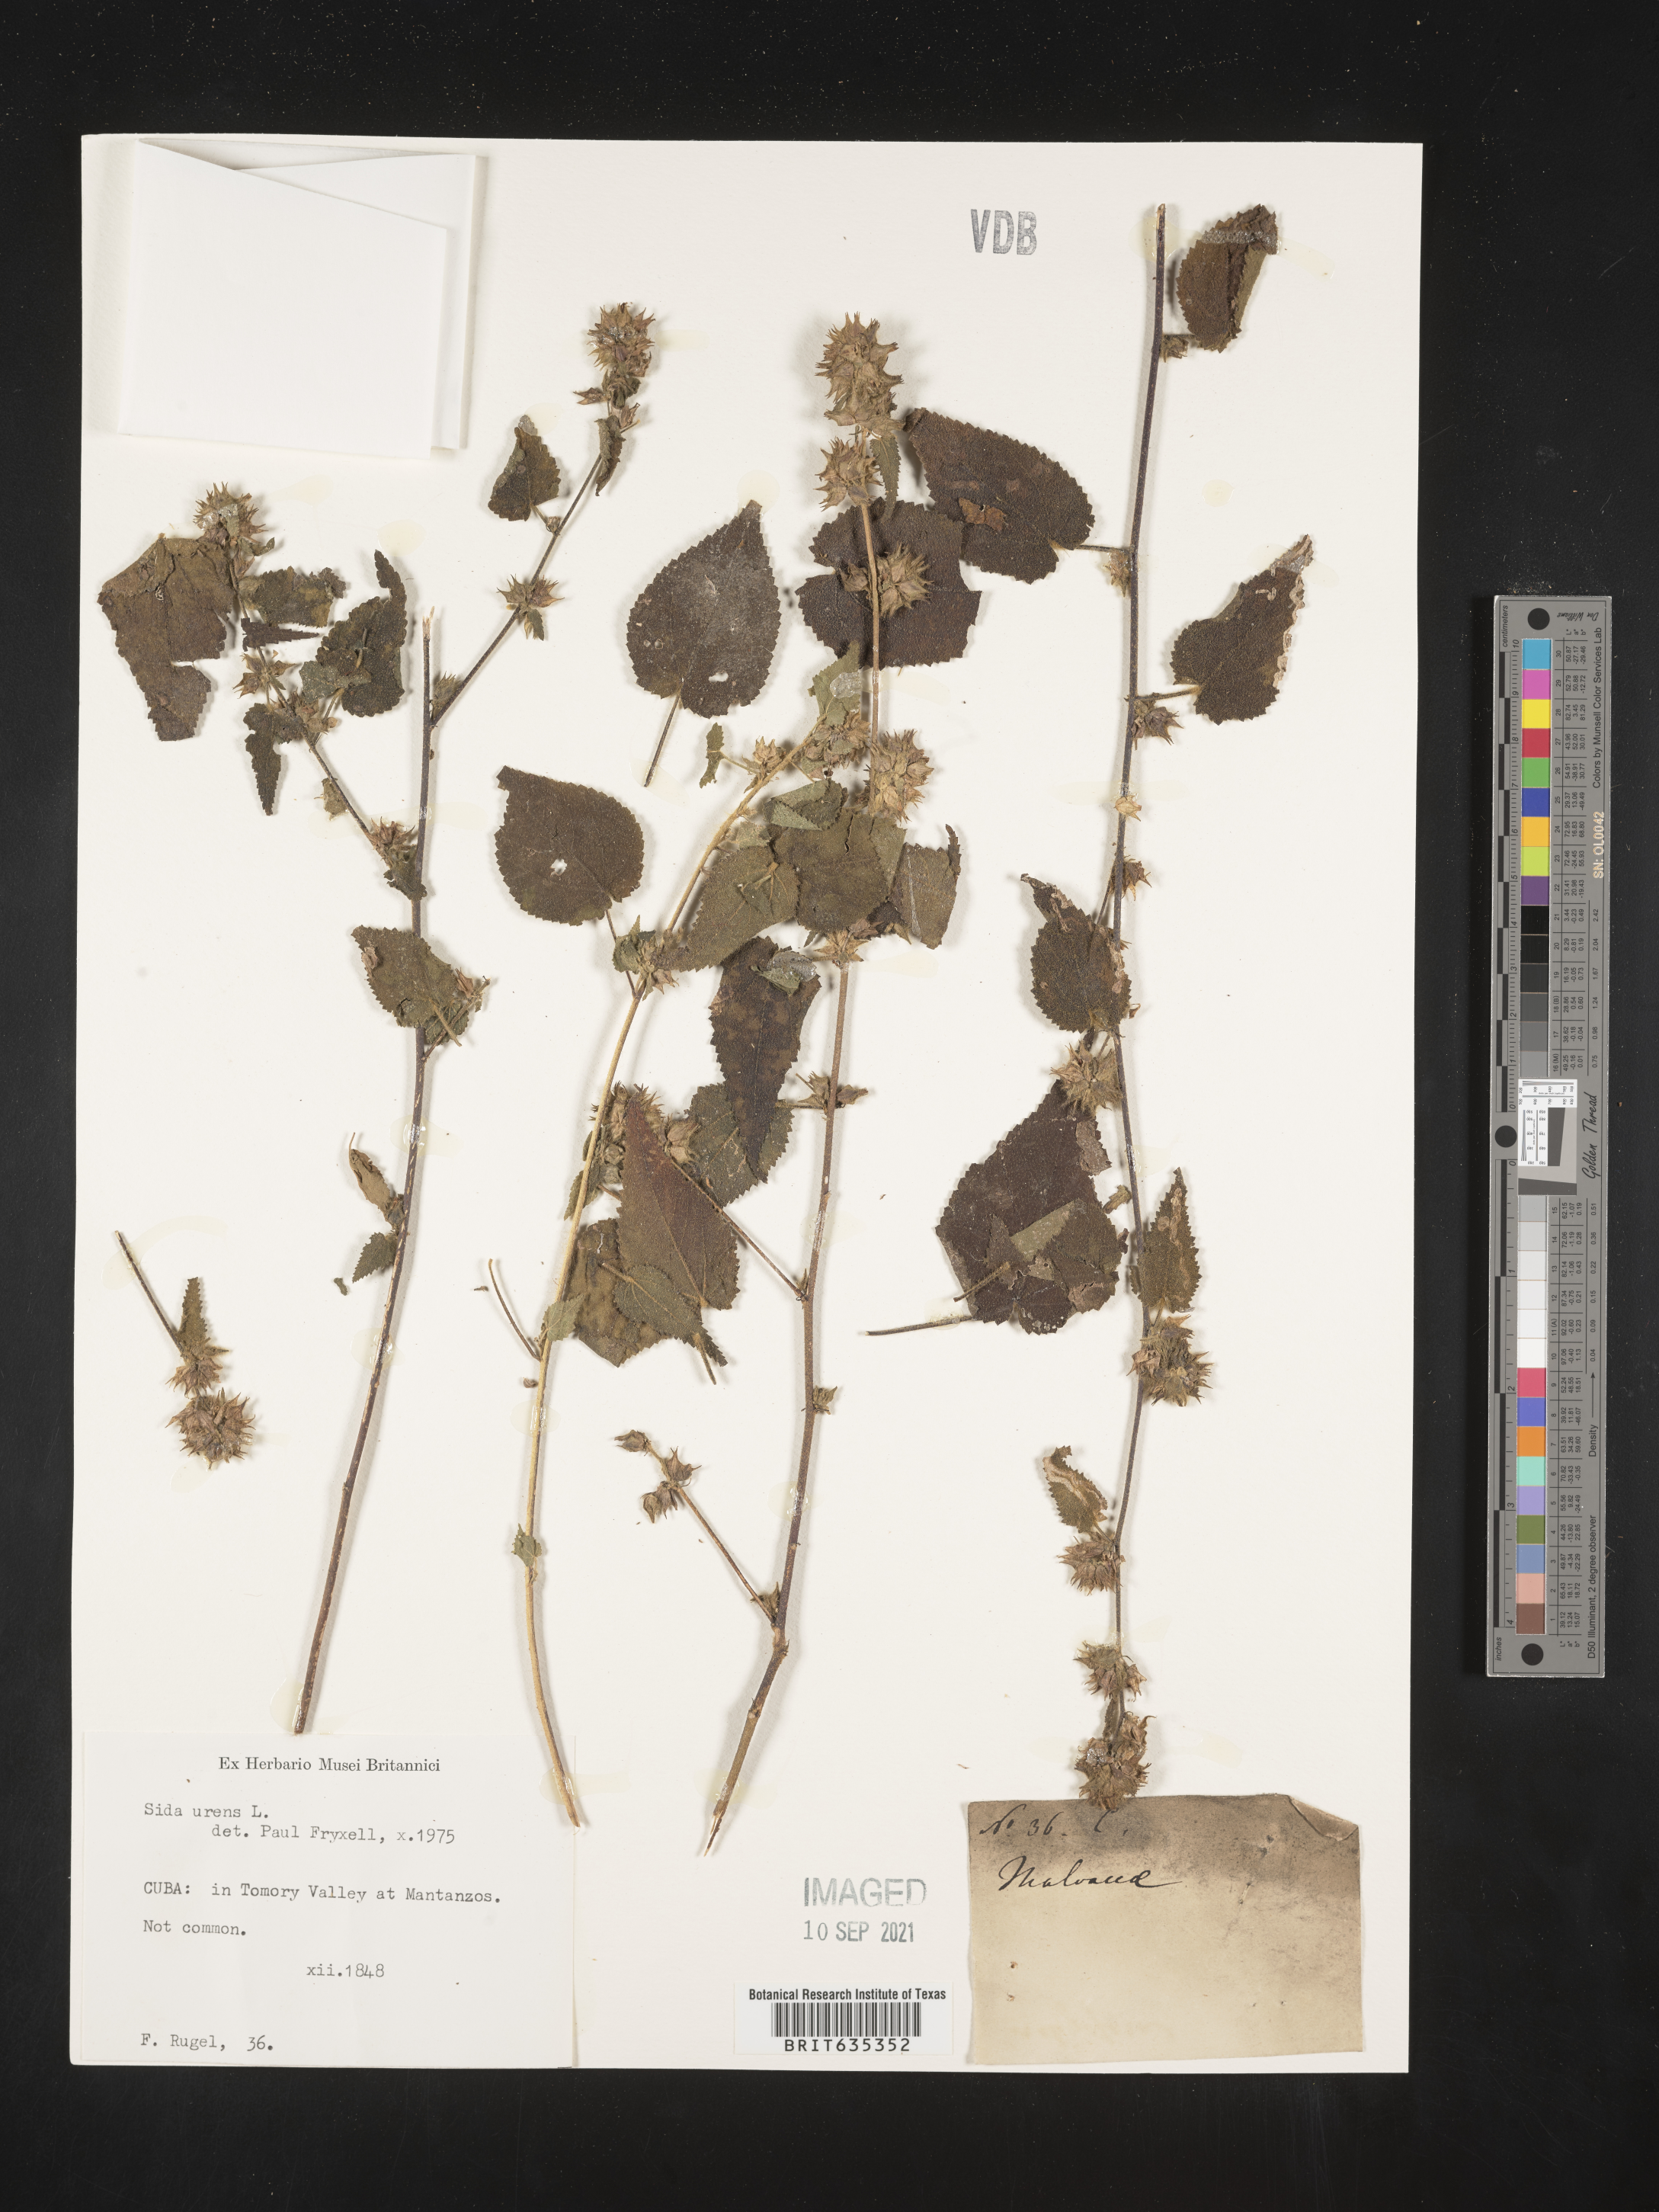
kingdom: Plantae
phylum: Tracheophyta
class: Magnoliopsida
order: Malvales
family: Malvaceae
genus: Sida
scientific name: Sida
